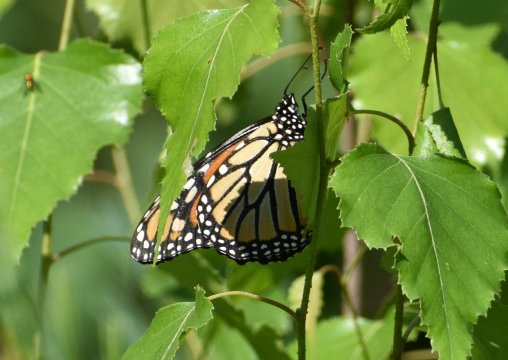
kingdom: Animalia
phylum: Arthropoda
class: Insecta
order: Lepidoptera
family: Nymphalidae
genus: Danaus
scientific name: Danaus plexippus
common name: Monarch
